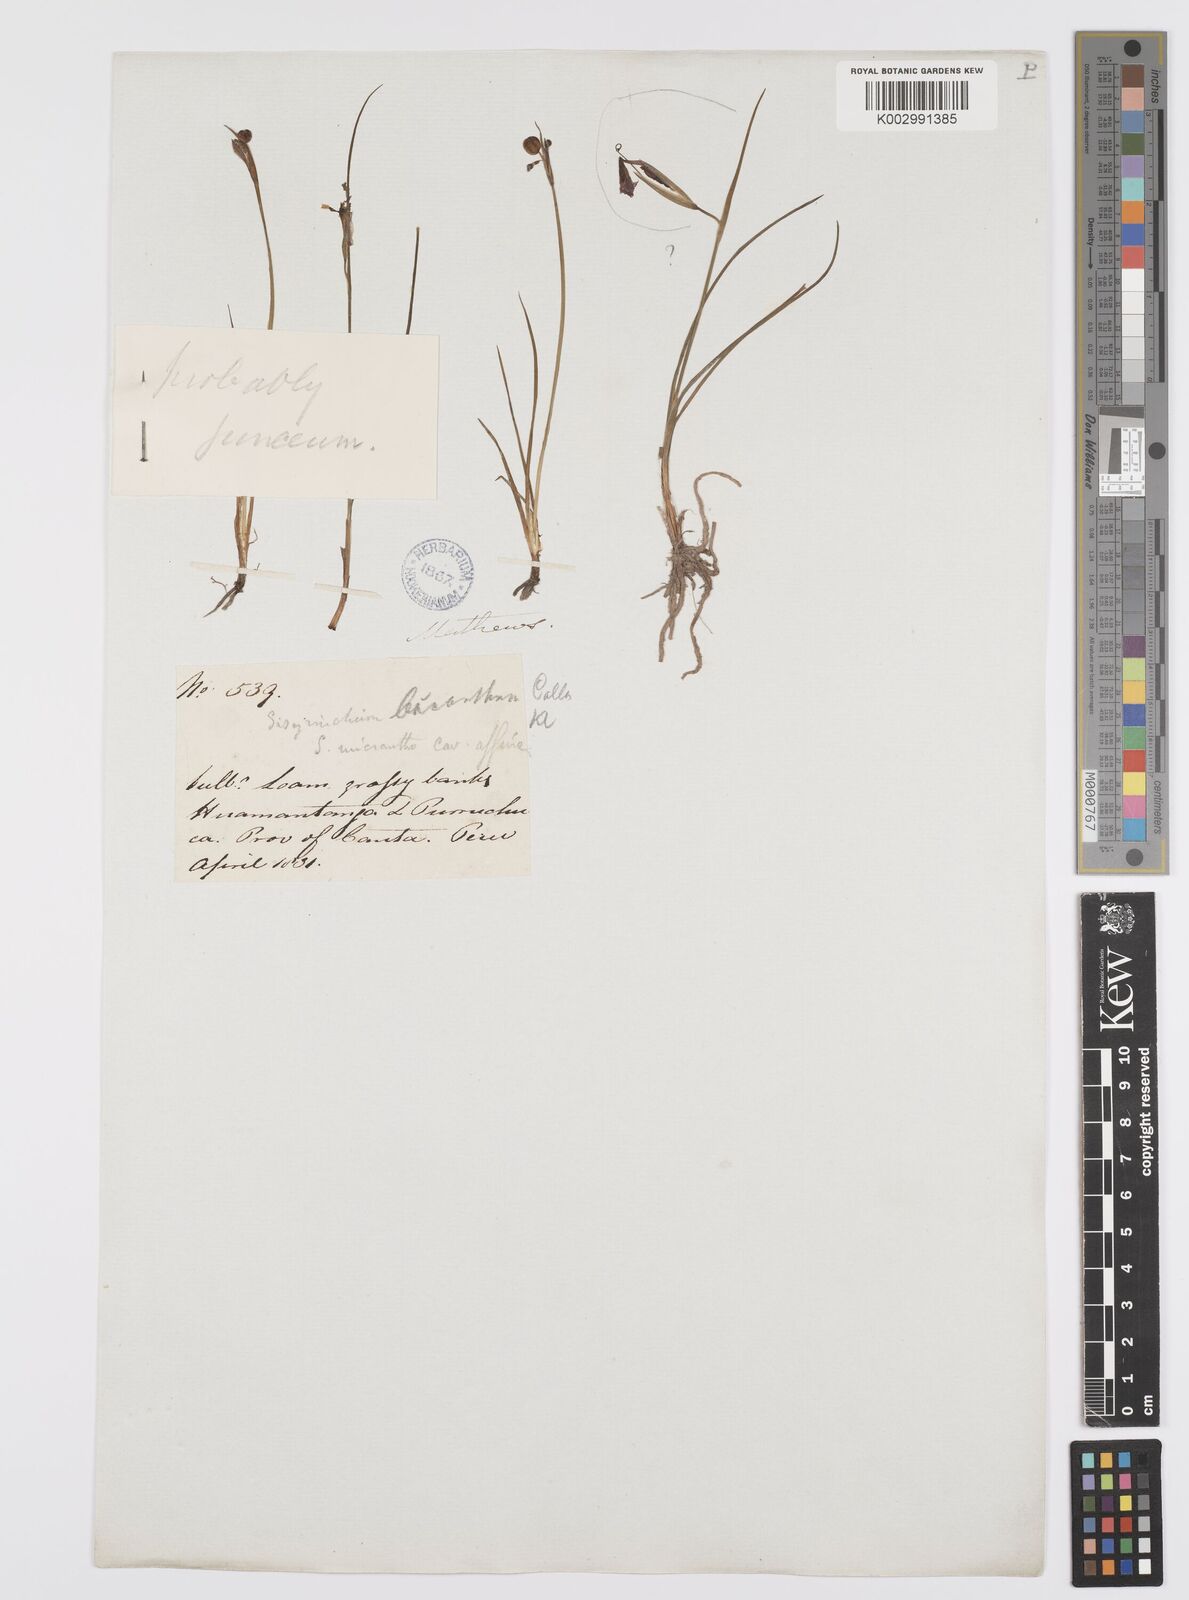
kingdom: Plantae
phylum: Tracheophyta
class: Liliopsida
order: Asparagales
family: Iridaceae
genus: Olsynium
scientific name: Olsynium junceum
